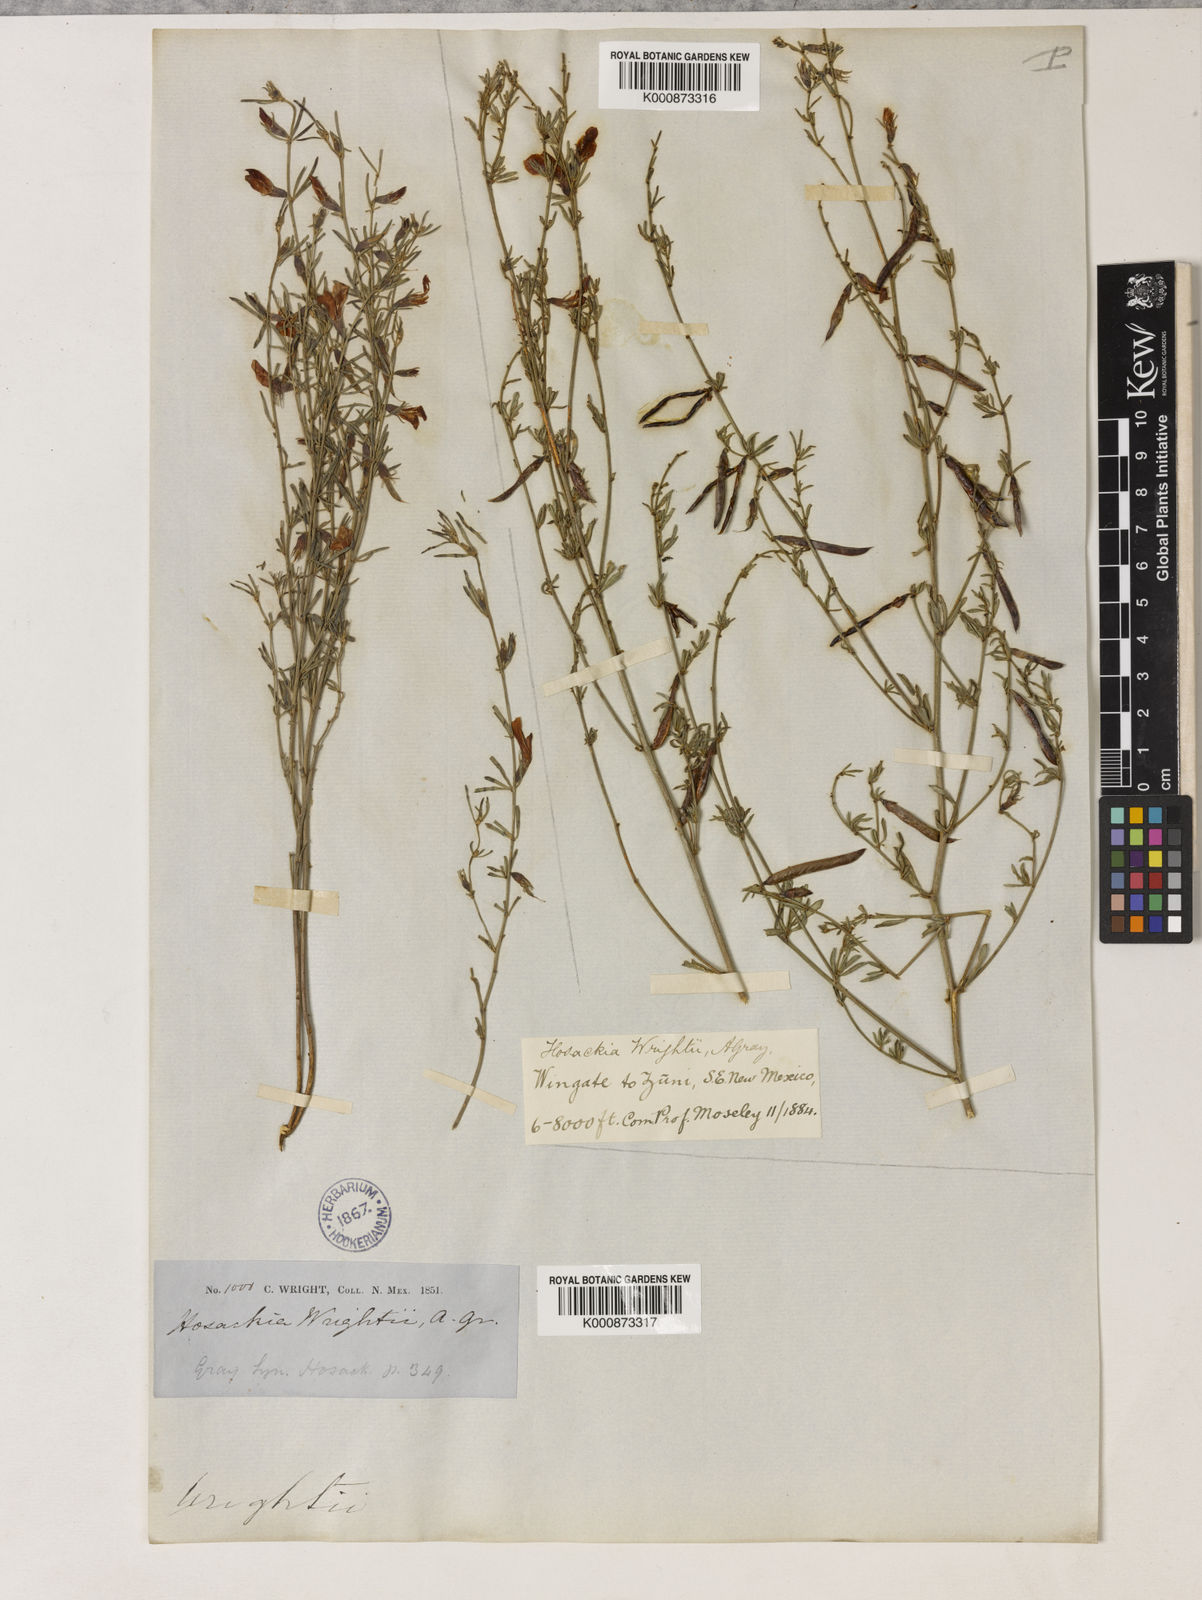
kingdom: Plantae
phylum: Tracheophyta
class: Magnoliopsida
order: Fabales
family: Fabaceae
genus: Acmispon
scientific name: Acmispon wrightii
